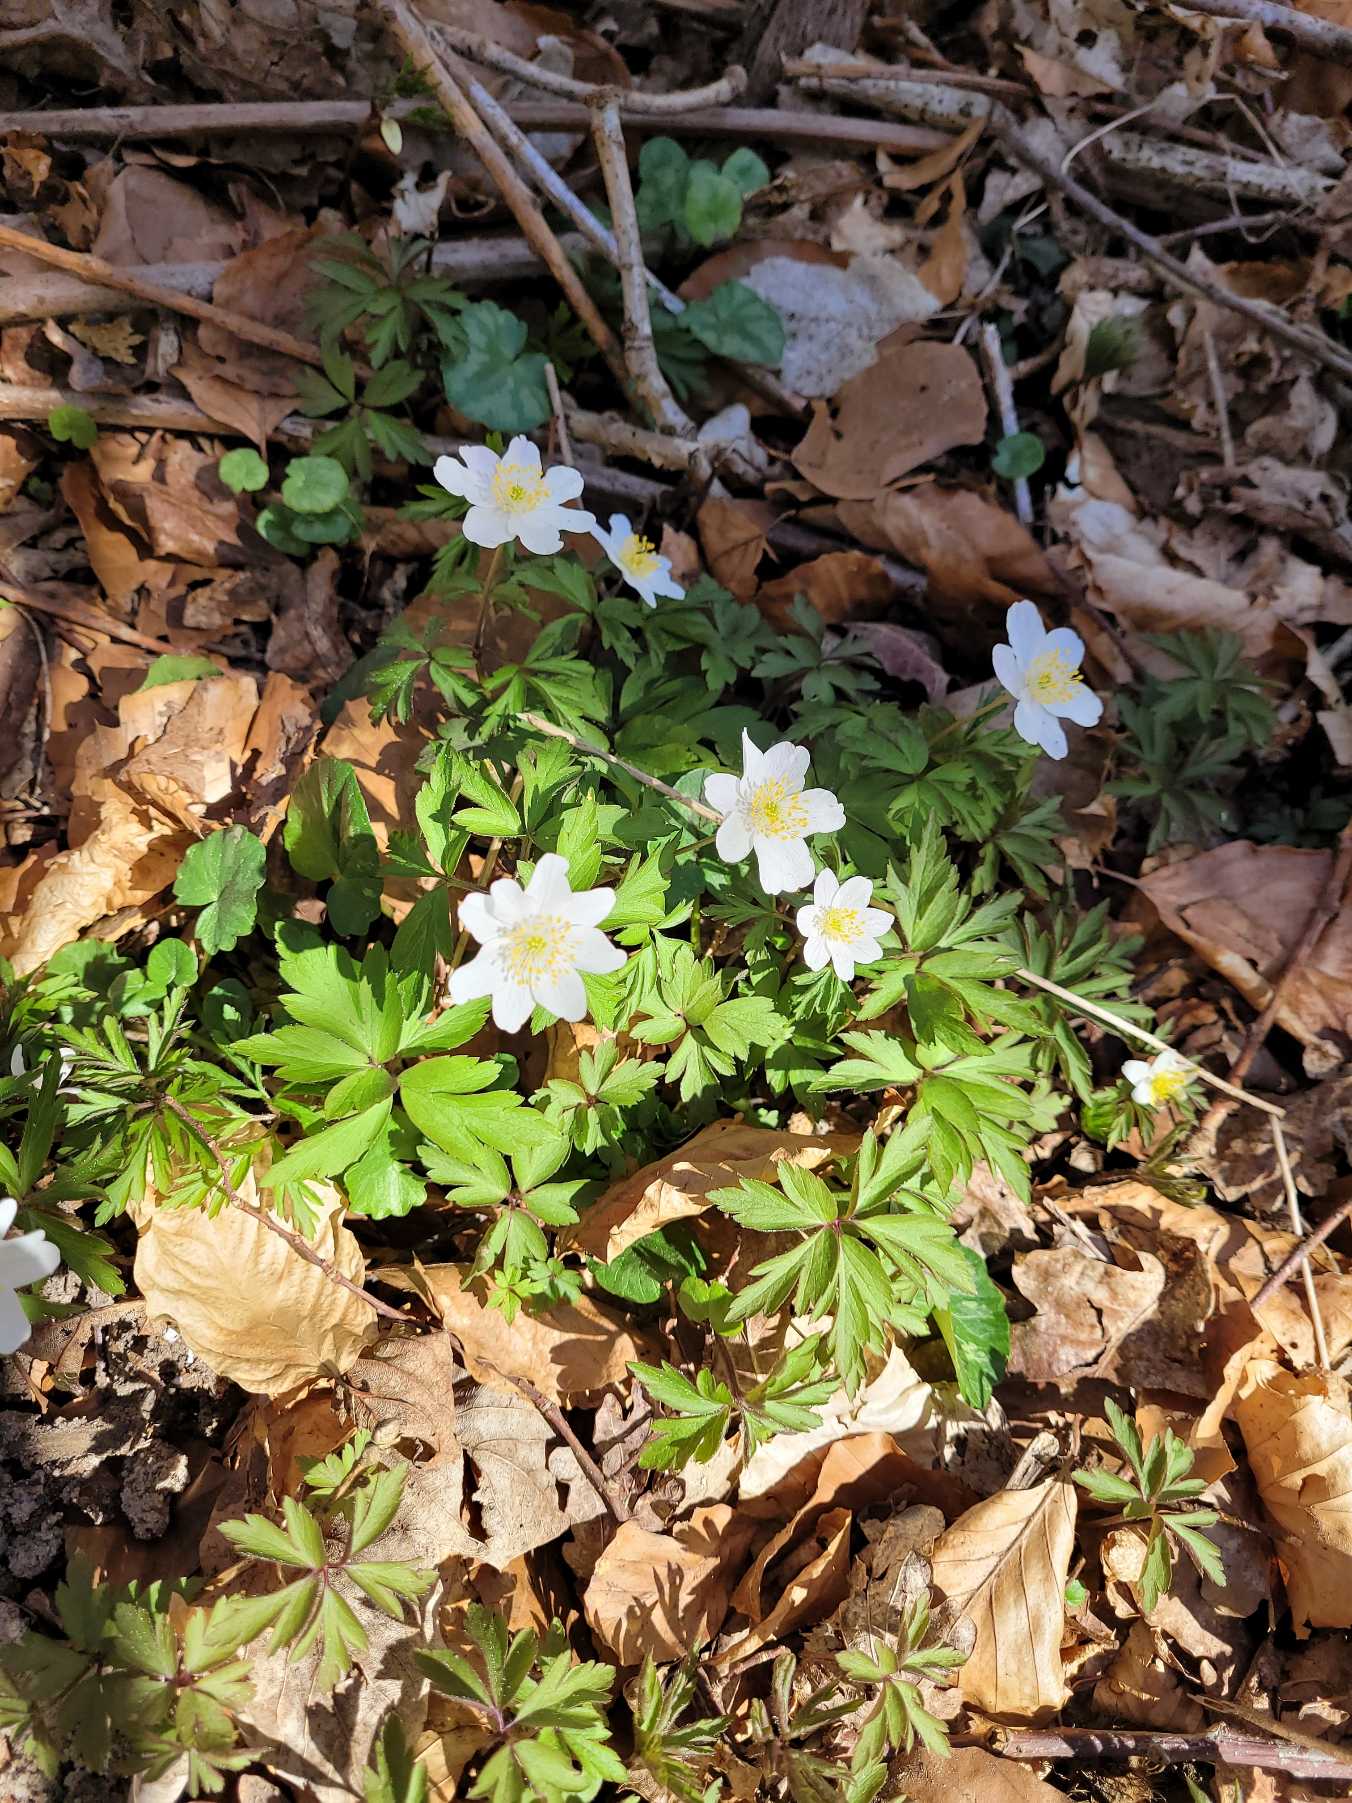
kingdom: Plantae
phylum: Tracheophyta
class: Magnoliopsida
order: Ranunculales
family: Ranunculaceae
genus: Anemone
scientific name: Anemone nemorosa
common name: Hvid anemone
